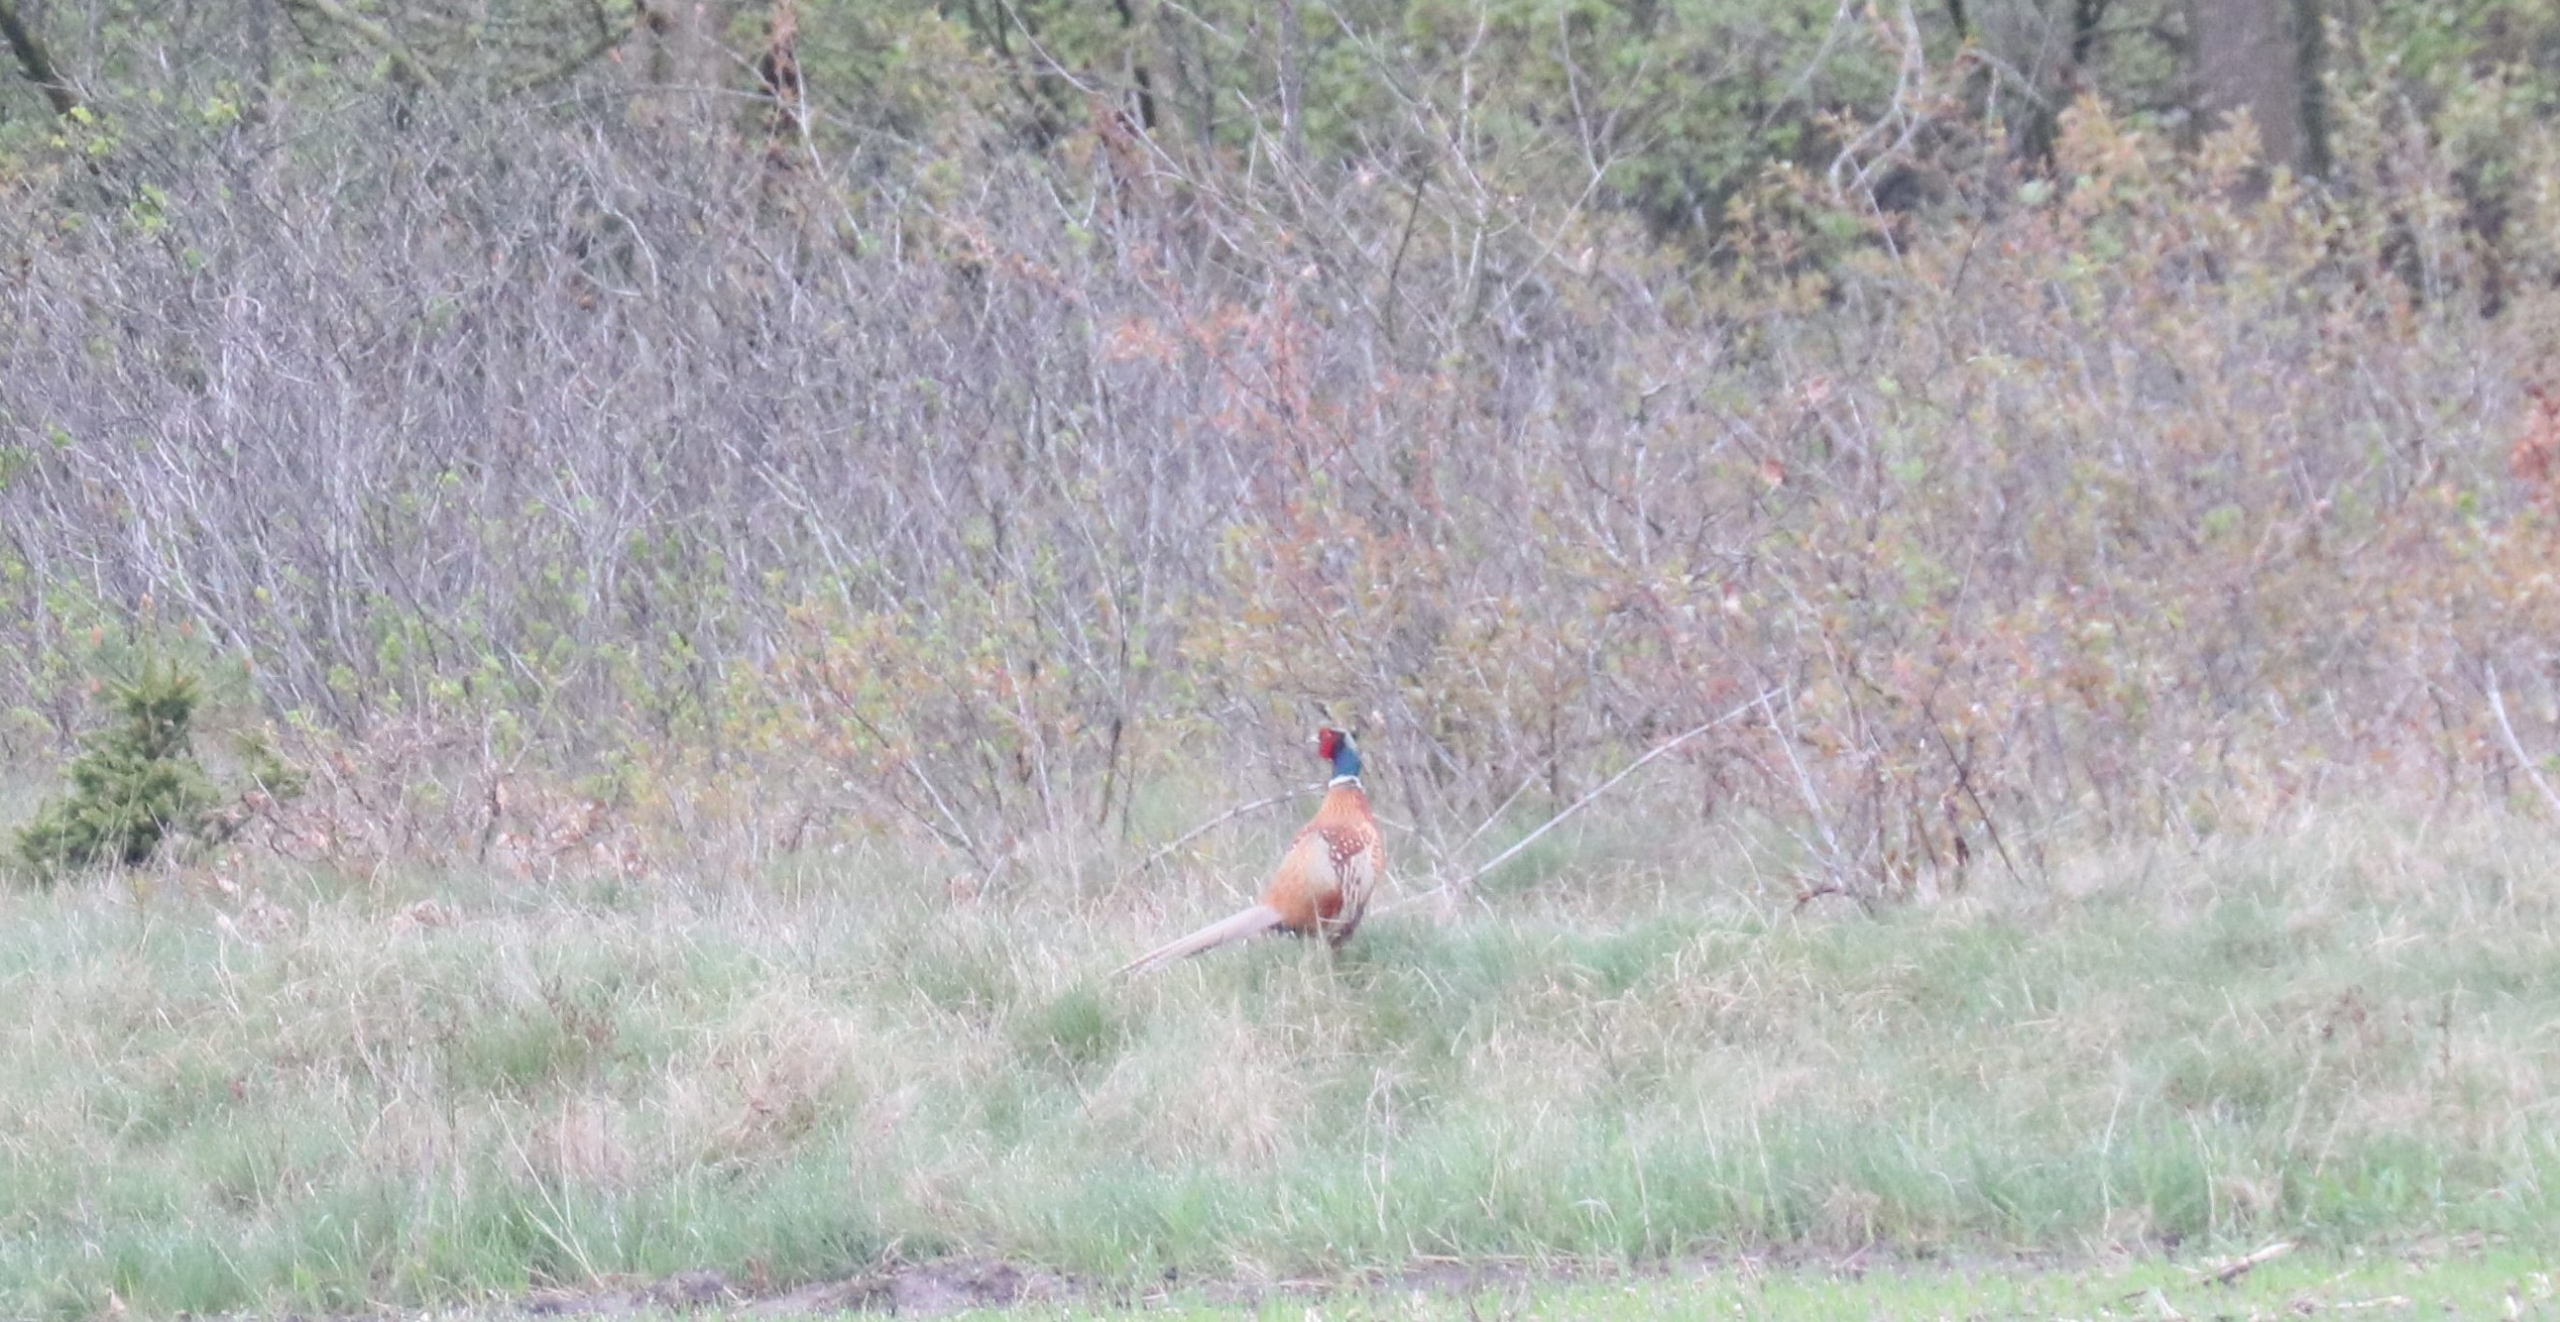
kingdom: Animalia
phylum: Chordata
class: Aves
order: Galliformes
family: Phasianidae
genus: Phasianus
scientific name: Phasianus colchicus
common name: Fasan
